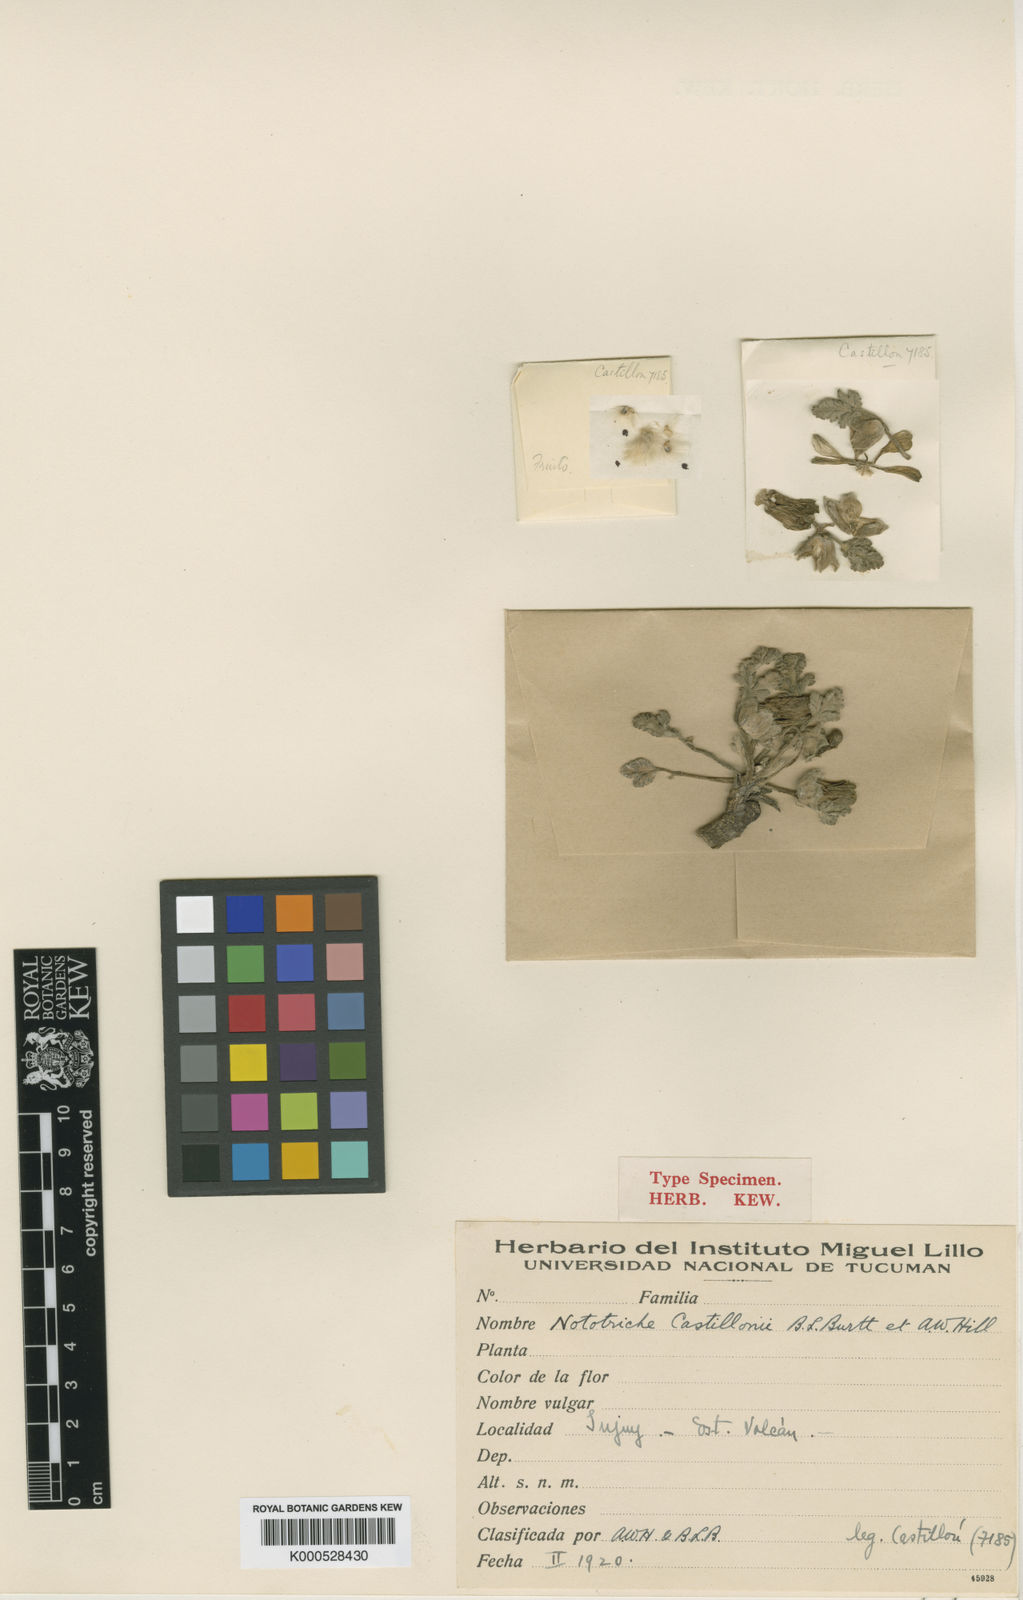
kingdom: Plantae
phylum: Tracheophyta
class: Magnoliopsida
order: Malvales
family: Malvaceae
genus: Nototriche
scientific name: Nototriche castillonii
